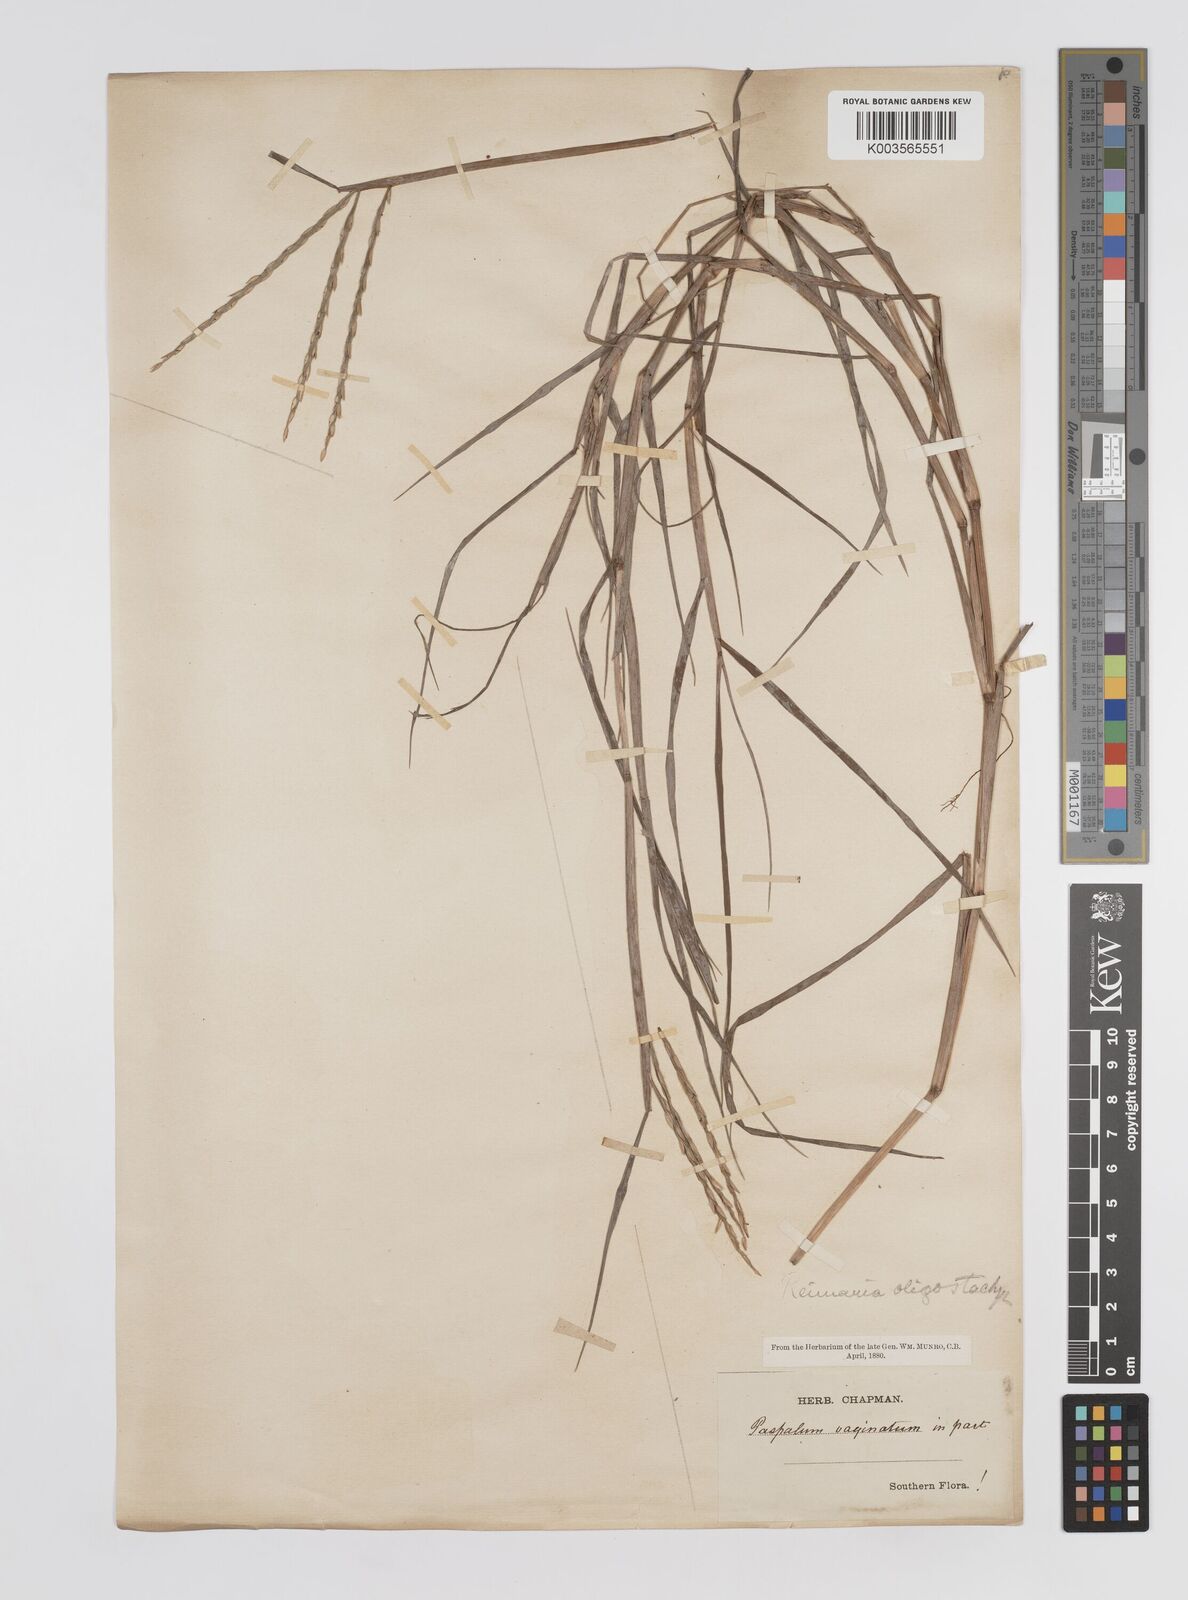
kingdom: Plantae
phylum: Tracheophyta
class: Liliopsida
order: Poales
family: Poaceae
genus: Paspalum
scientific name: Paspalum eglume
